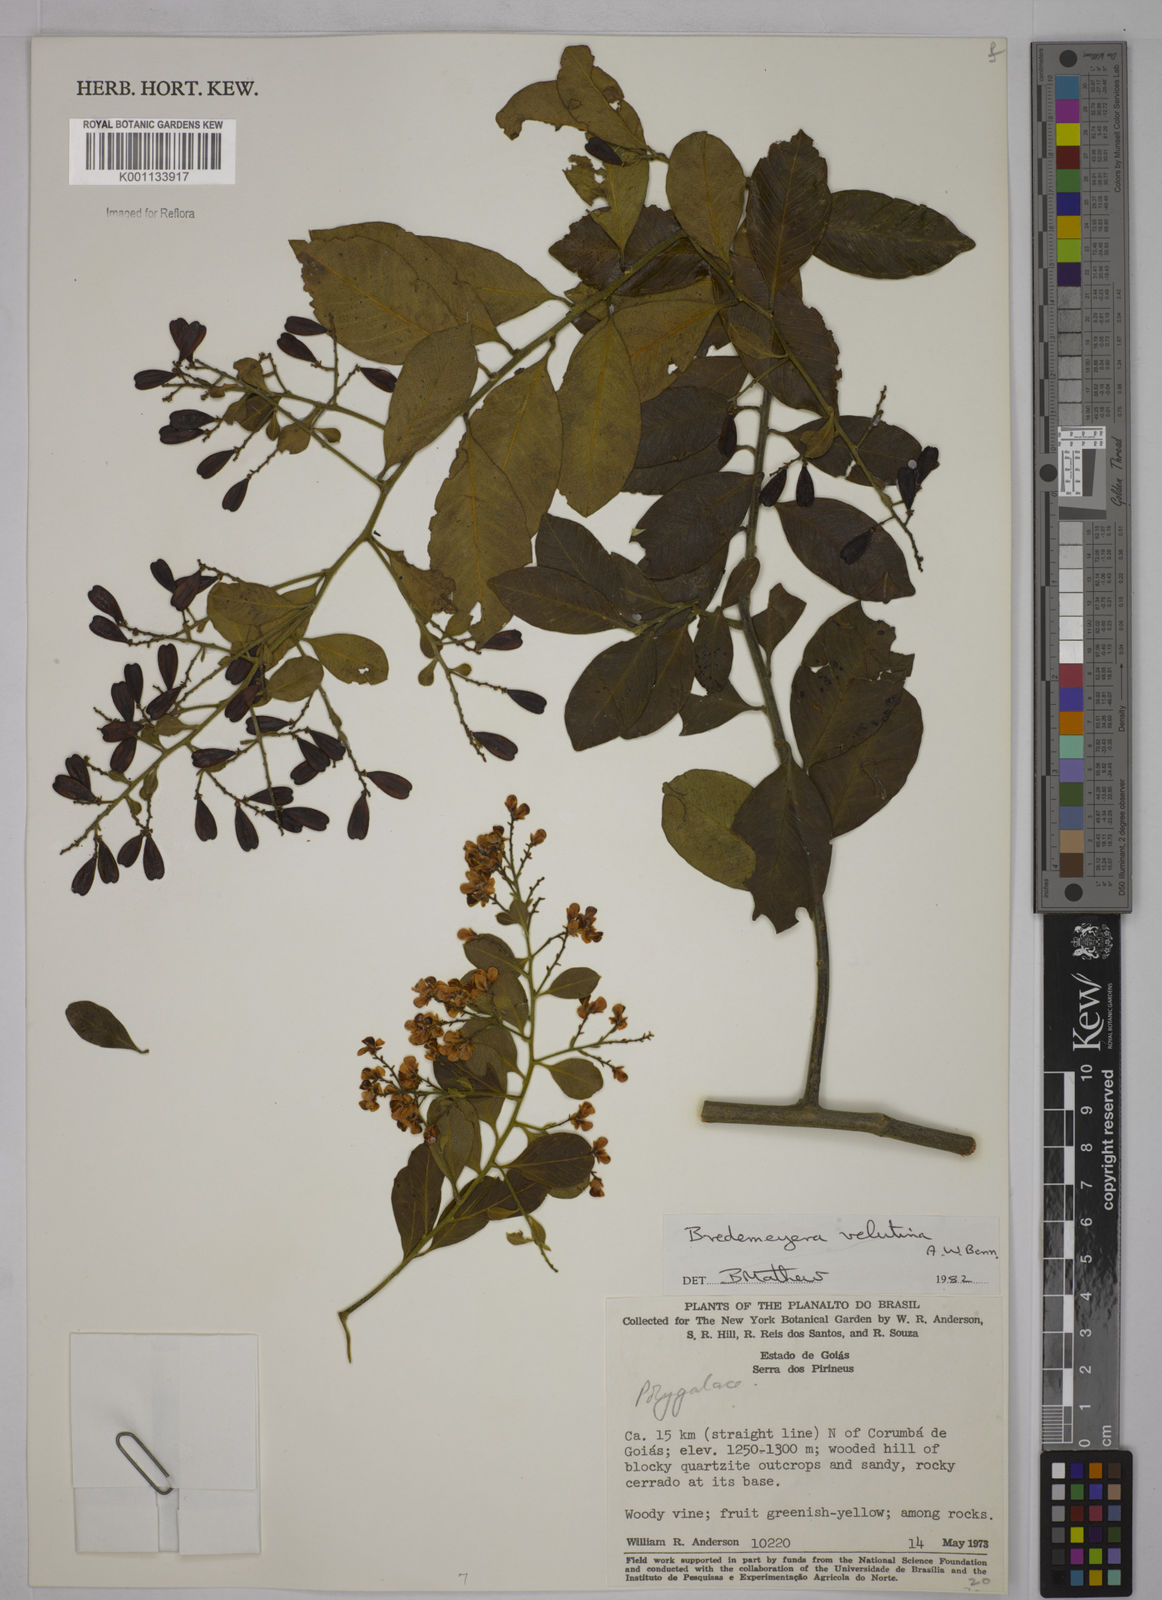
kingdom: Plantae
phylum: Tracheophyta
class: Magnoliopsida
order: Fabales
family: Polygalaceae
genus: Bredemeyera
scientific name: Bredemeyera hebeclada
